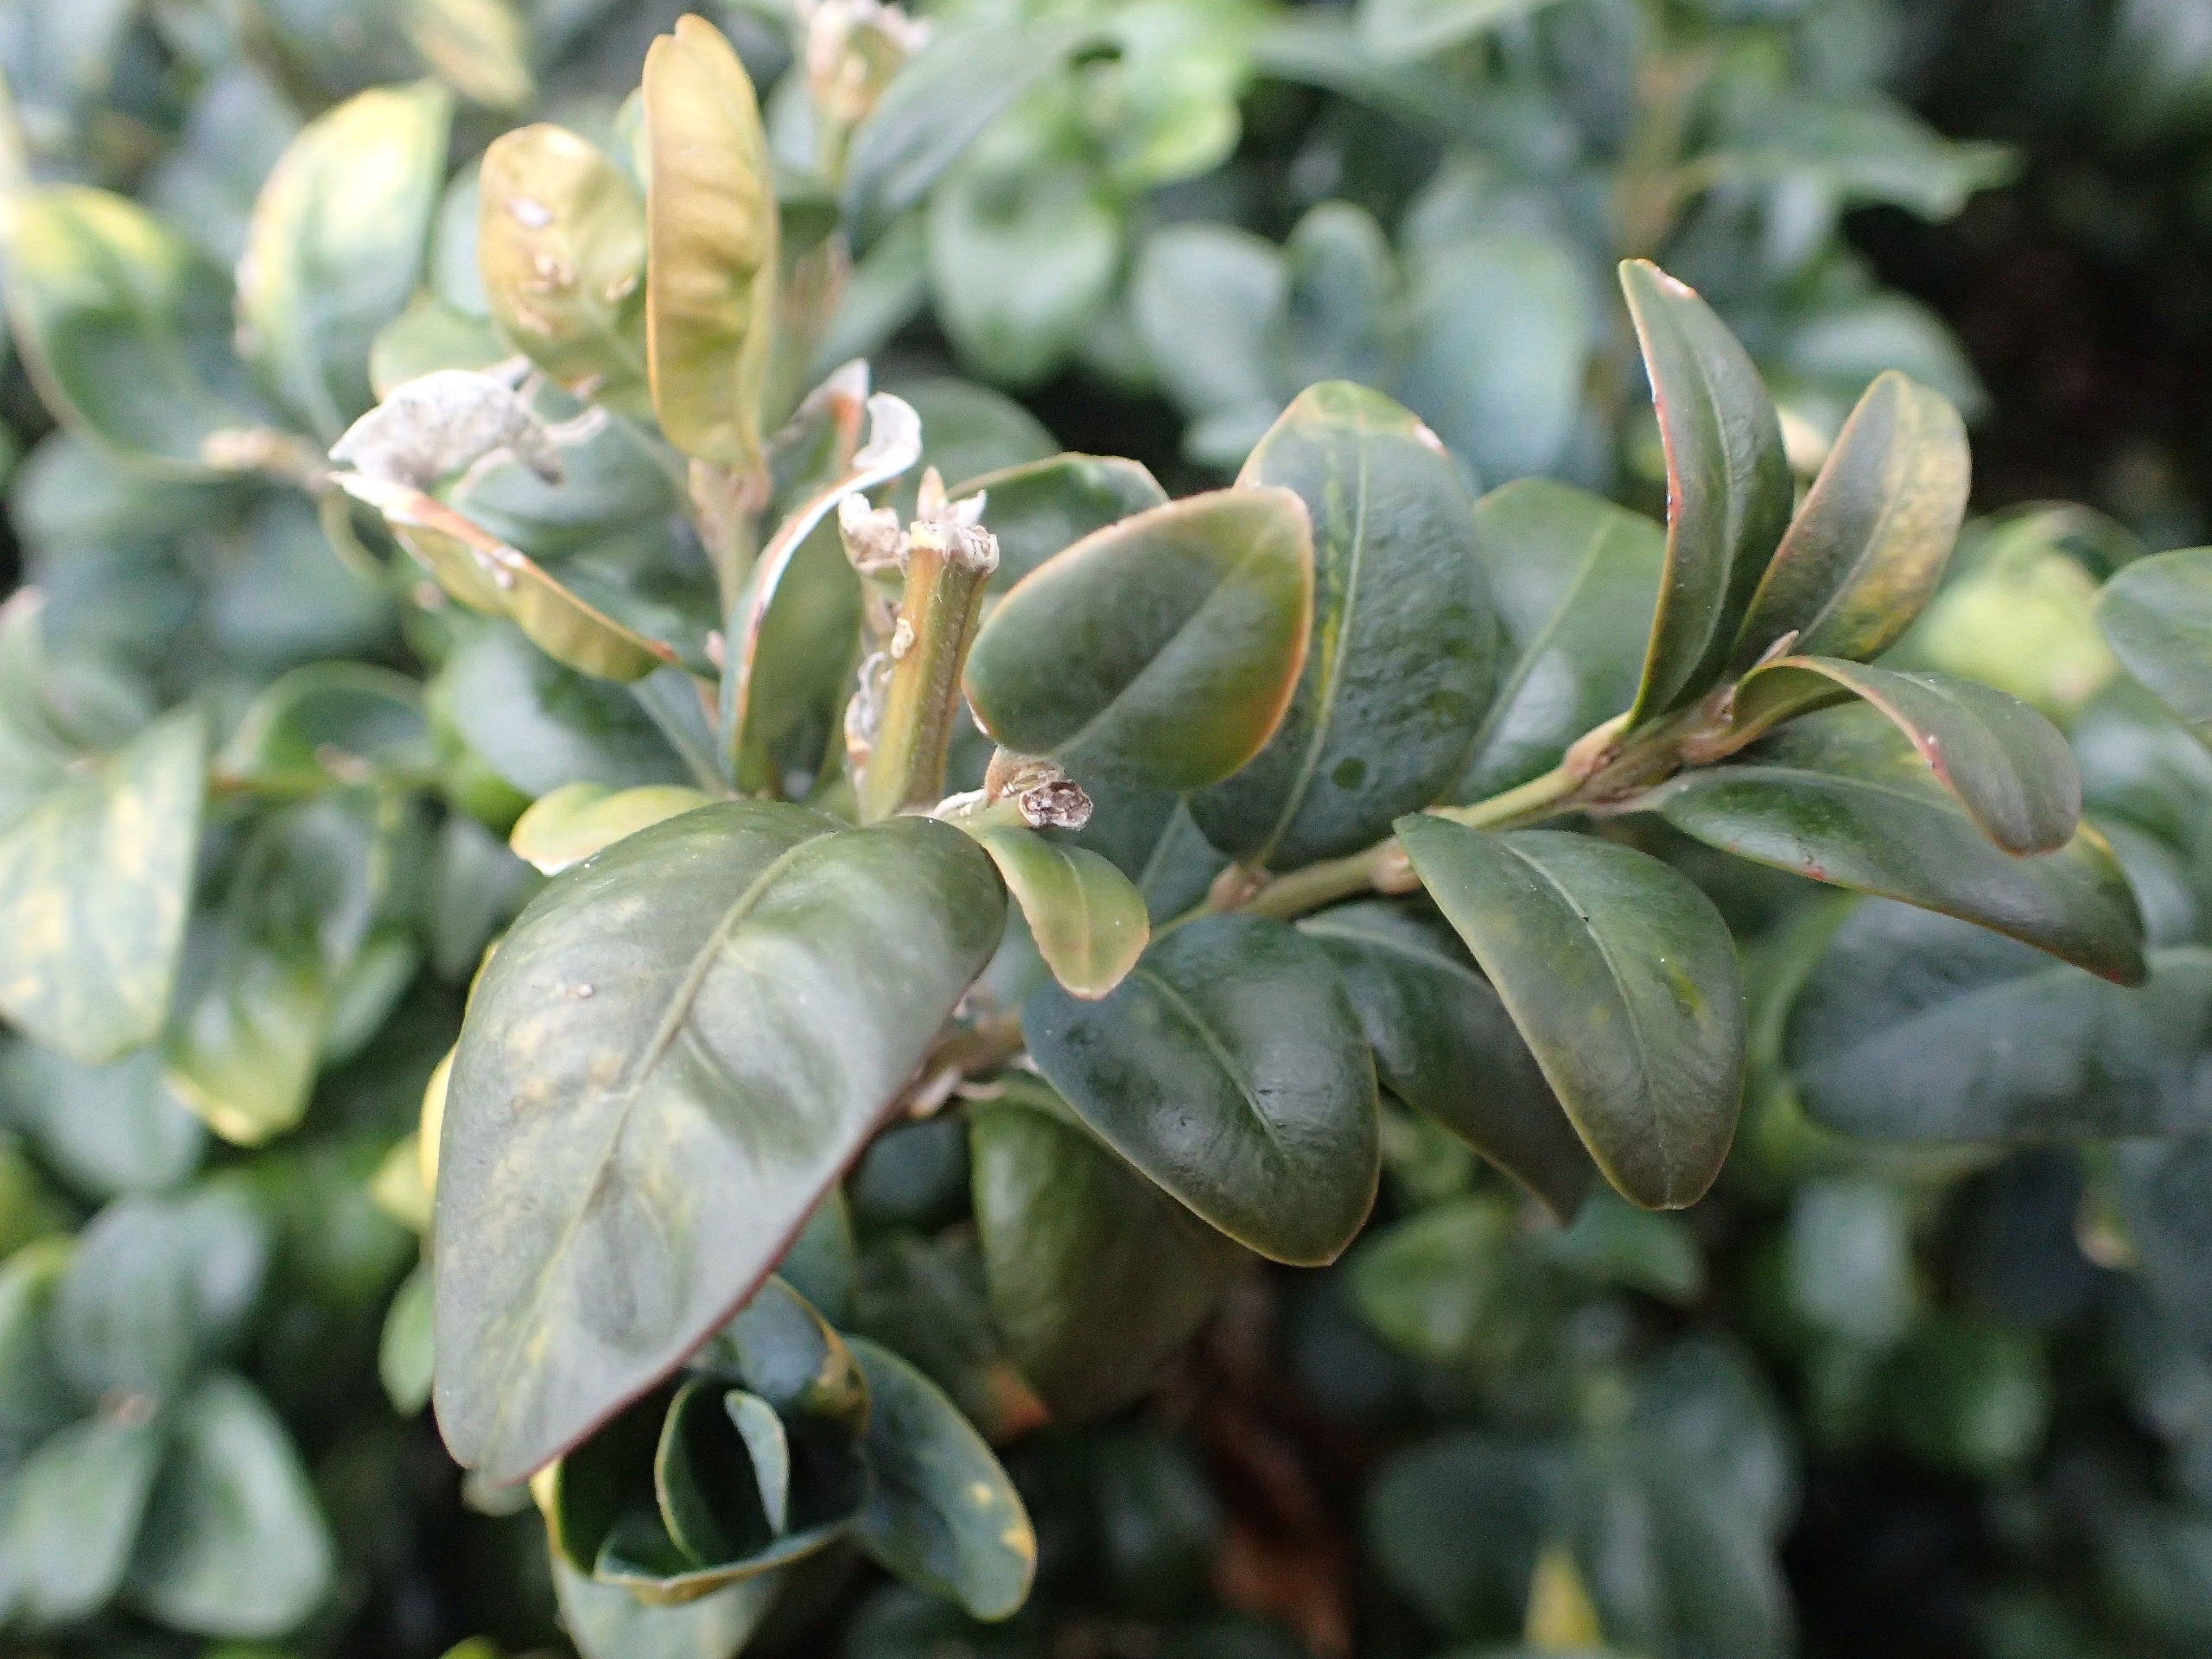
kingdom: Plantae
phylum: Tracheophyta
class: Magnoliopsida
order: Buxales
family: Buxaceae
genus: Buxus
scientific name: Buxus sempervirens
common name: Almindelig buksbom
